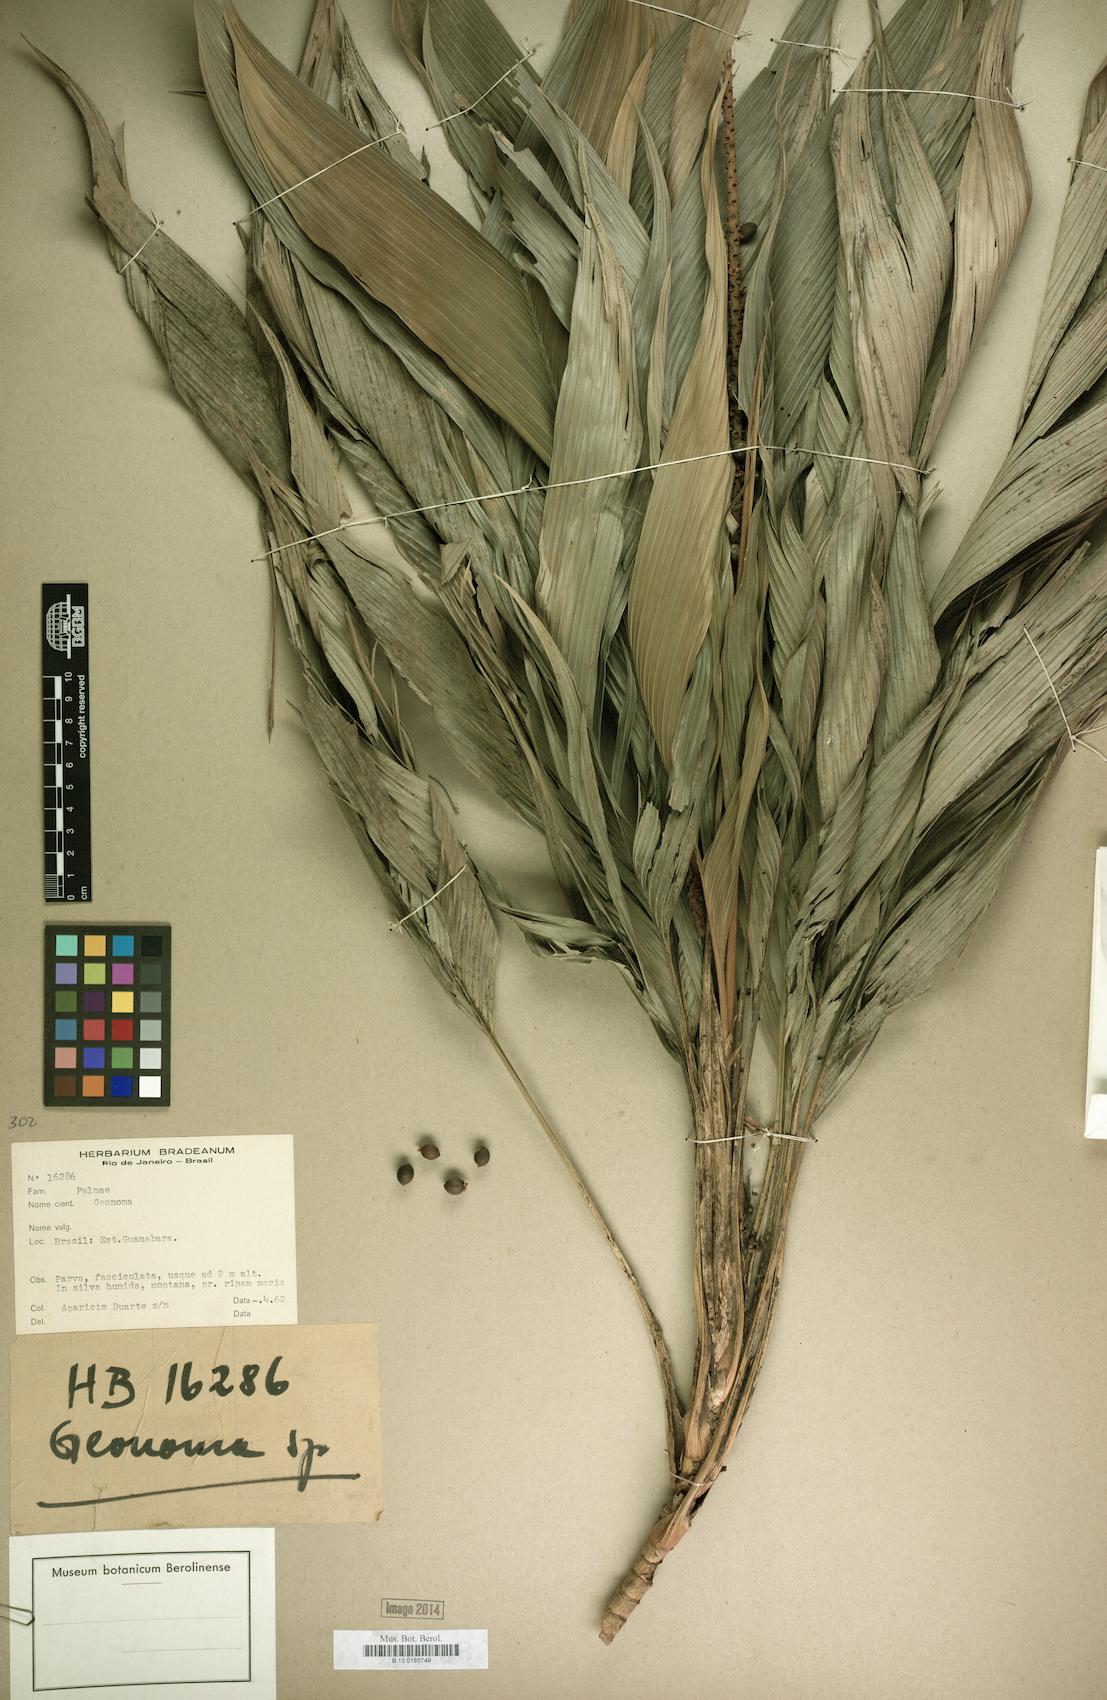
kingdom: Plantae
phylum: Tracheophyta
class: Liliopsida
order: Arecales
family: Arecaceae
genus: Geonoma
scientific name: Geonoma
